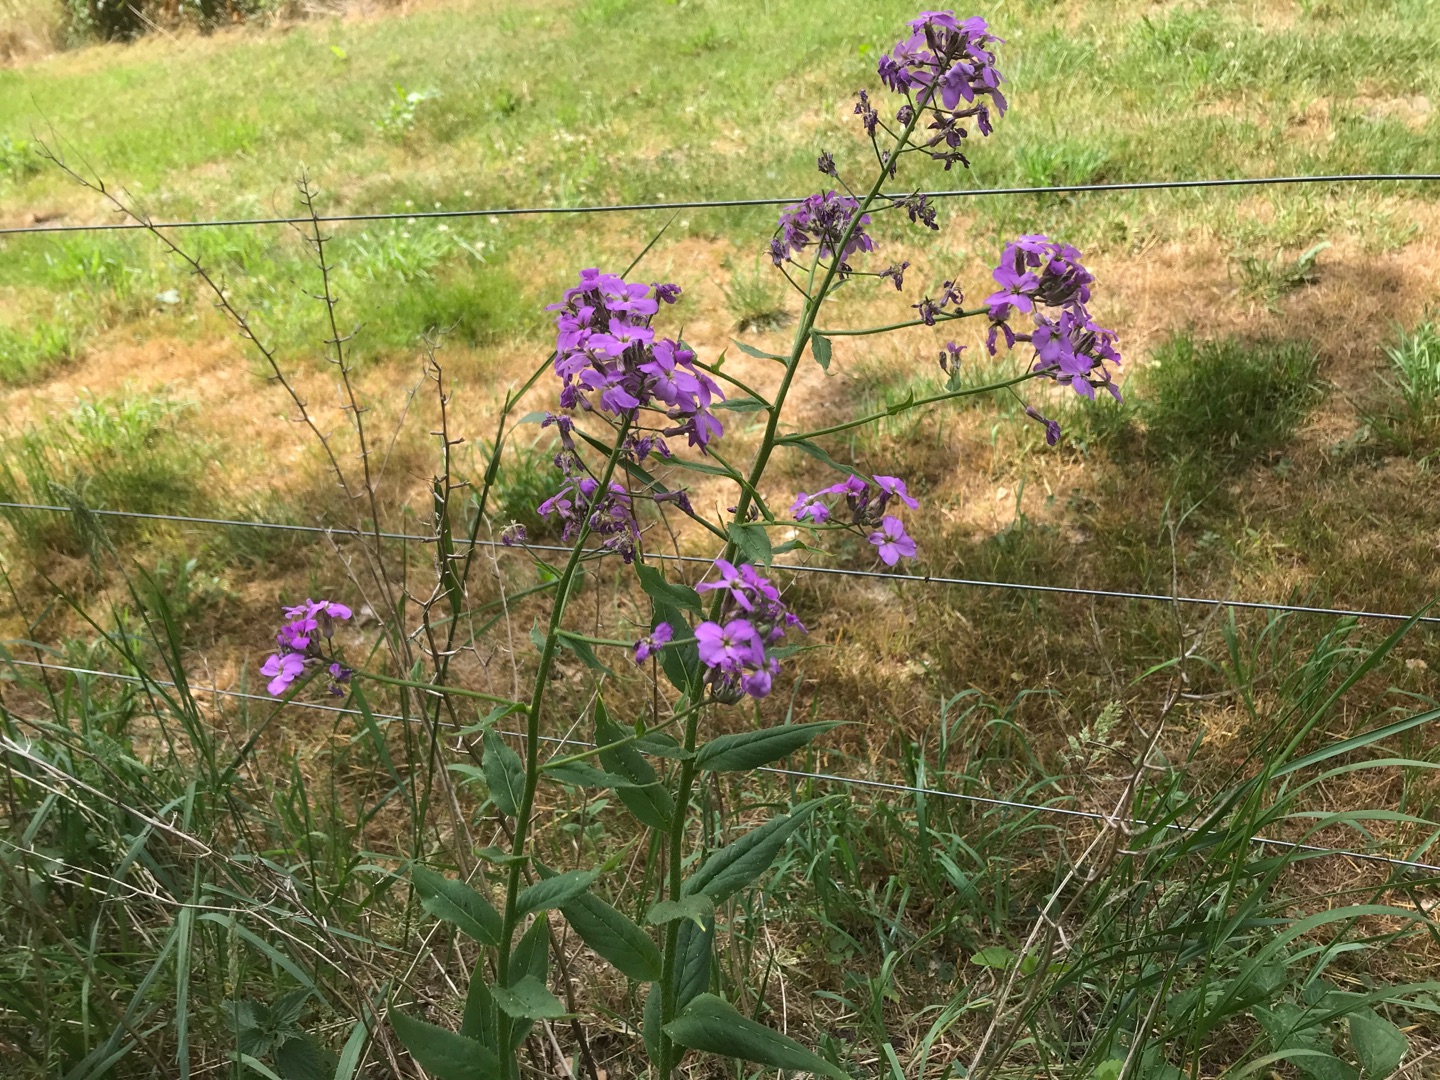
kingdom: Plantae
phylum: Tracheophyta
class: Magnoliopsida
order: Brassicales
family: Brassicaceae
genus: Hesperis
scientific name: Hesperis matronalis
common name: Aftenstjerne
